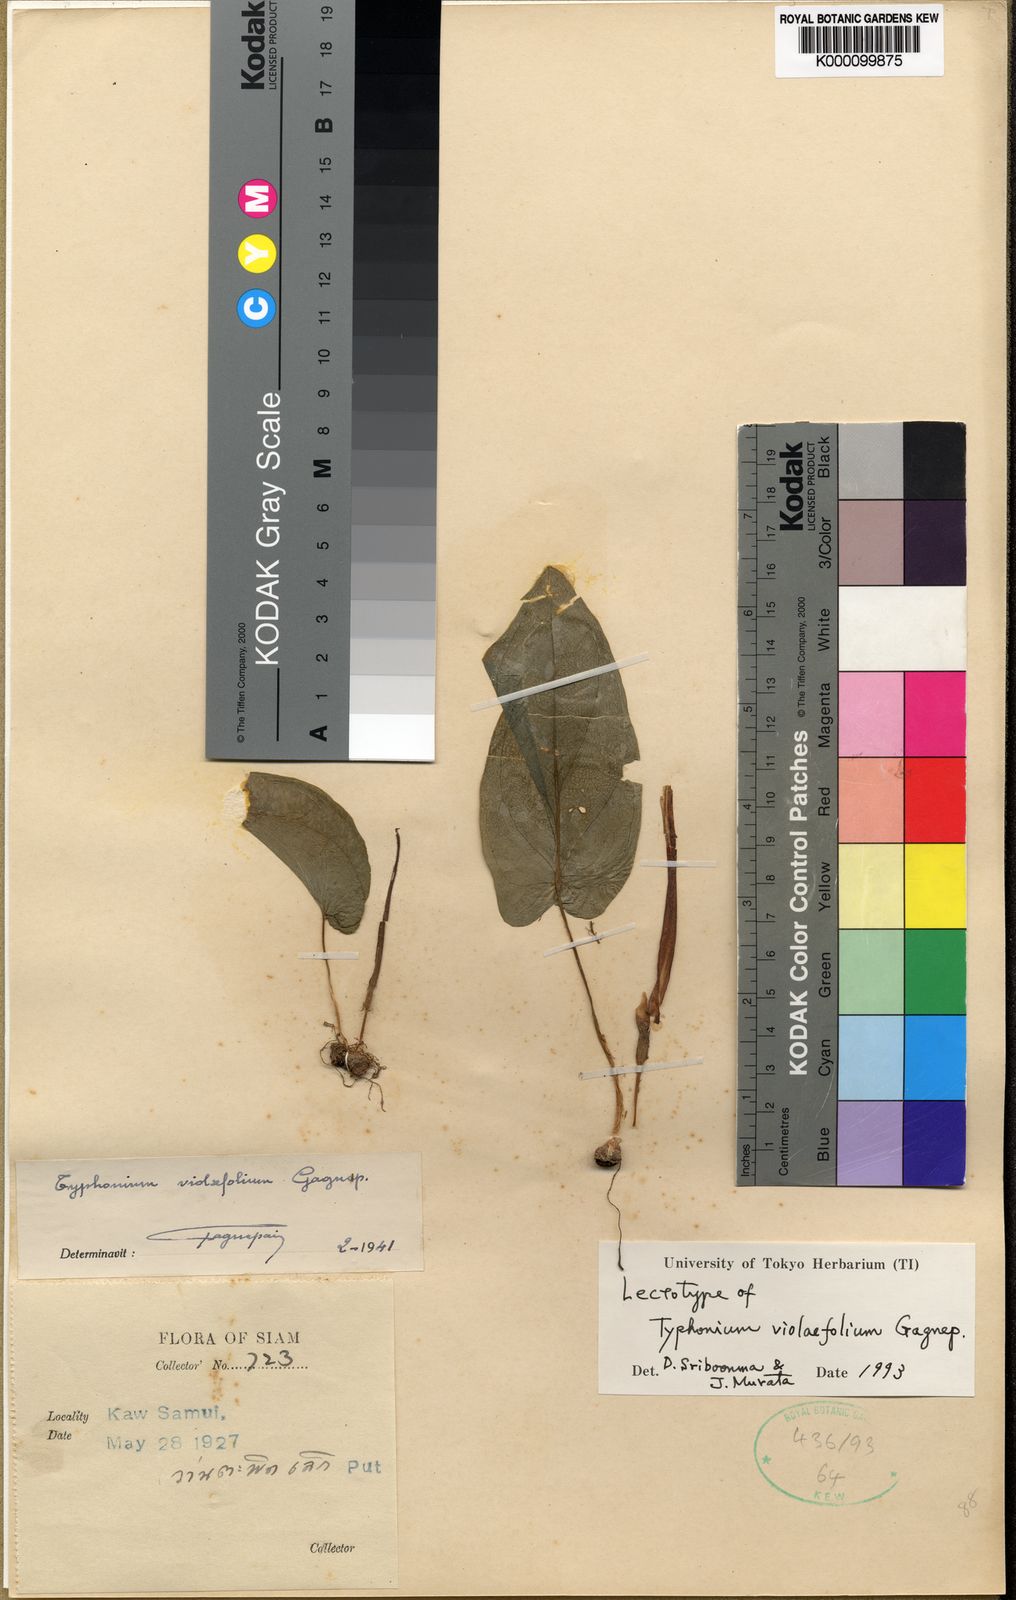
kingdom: Plantae
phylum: Tracheophyta
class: Liliopsida
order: Alismatales
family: Araceae
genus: Typhonium
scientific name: Typhonium violifolium
